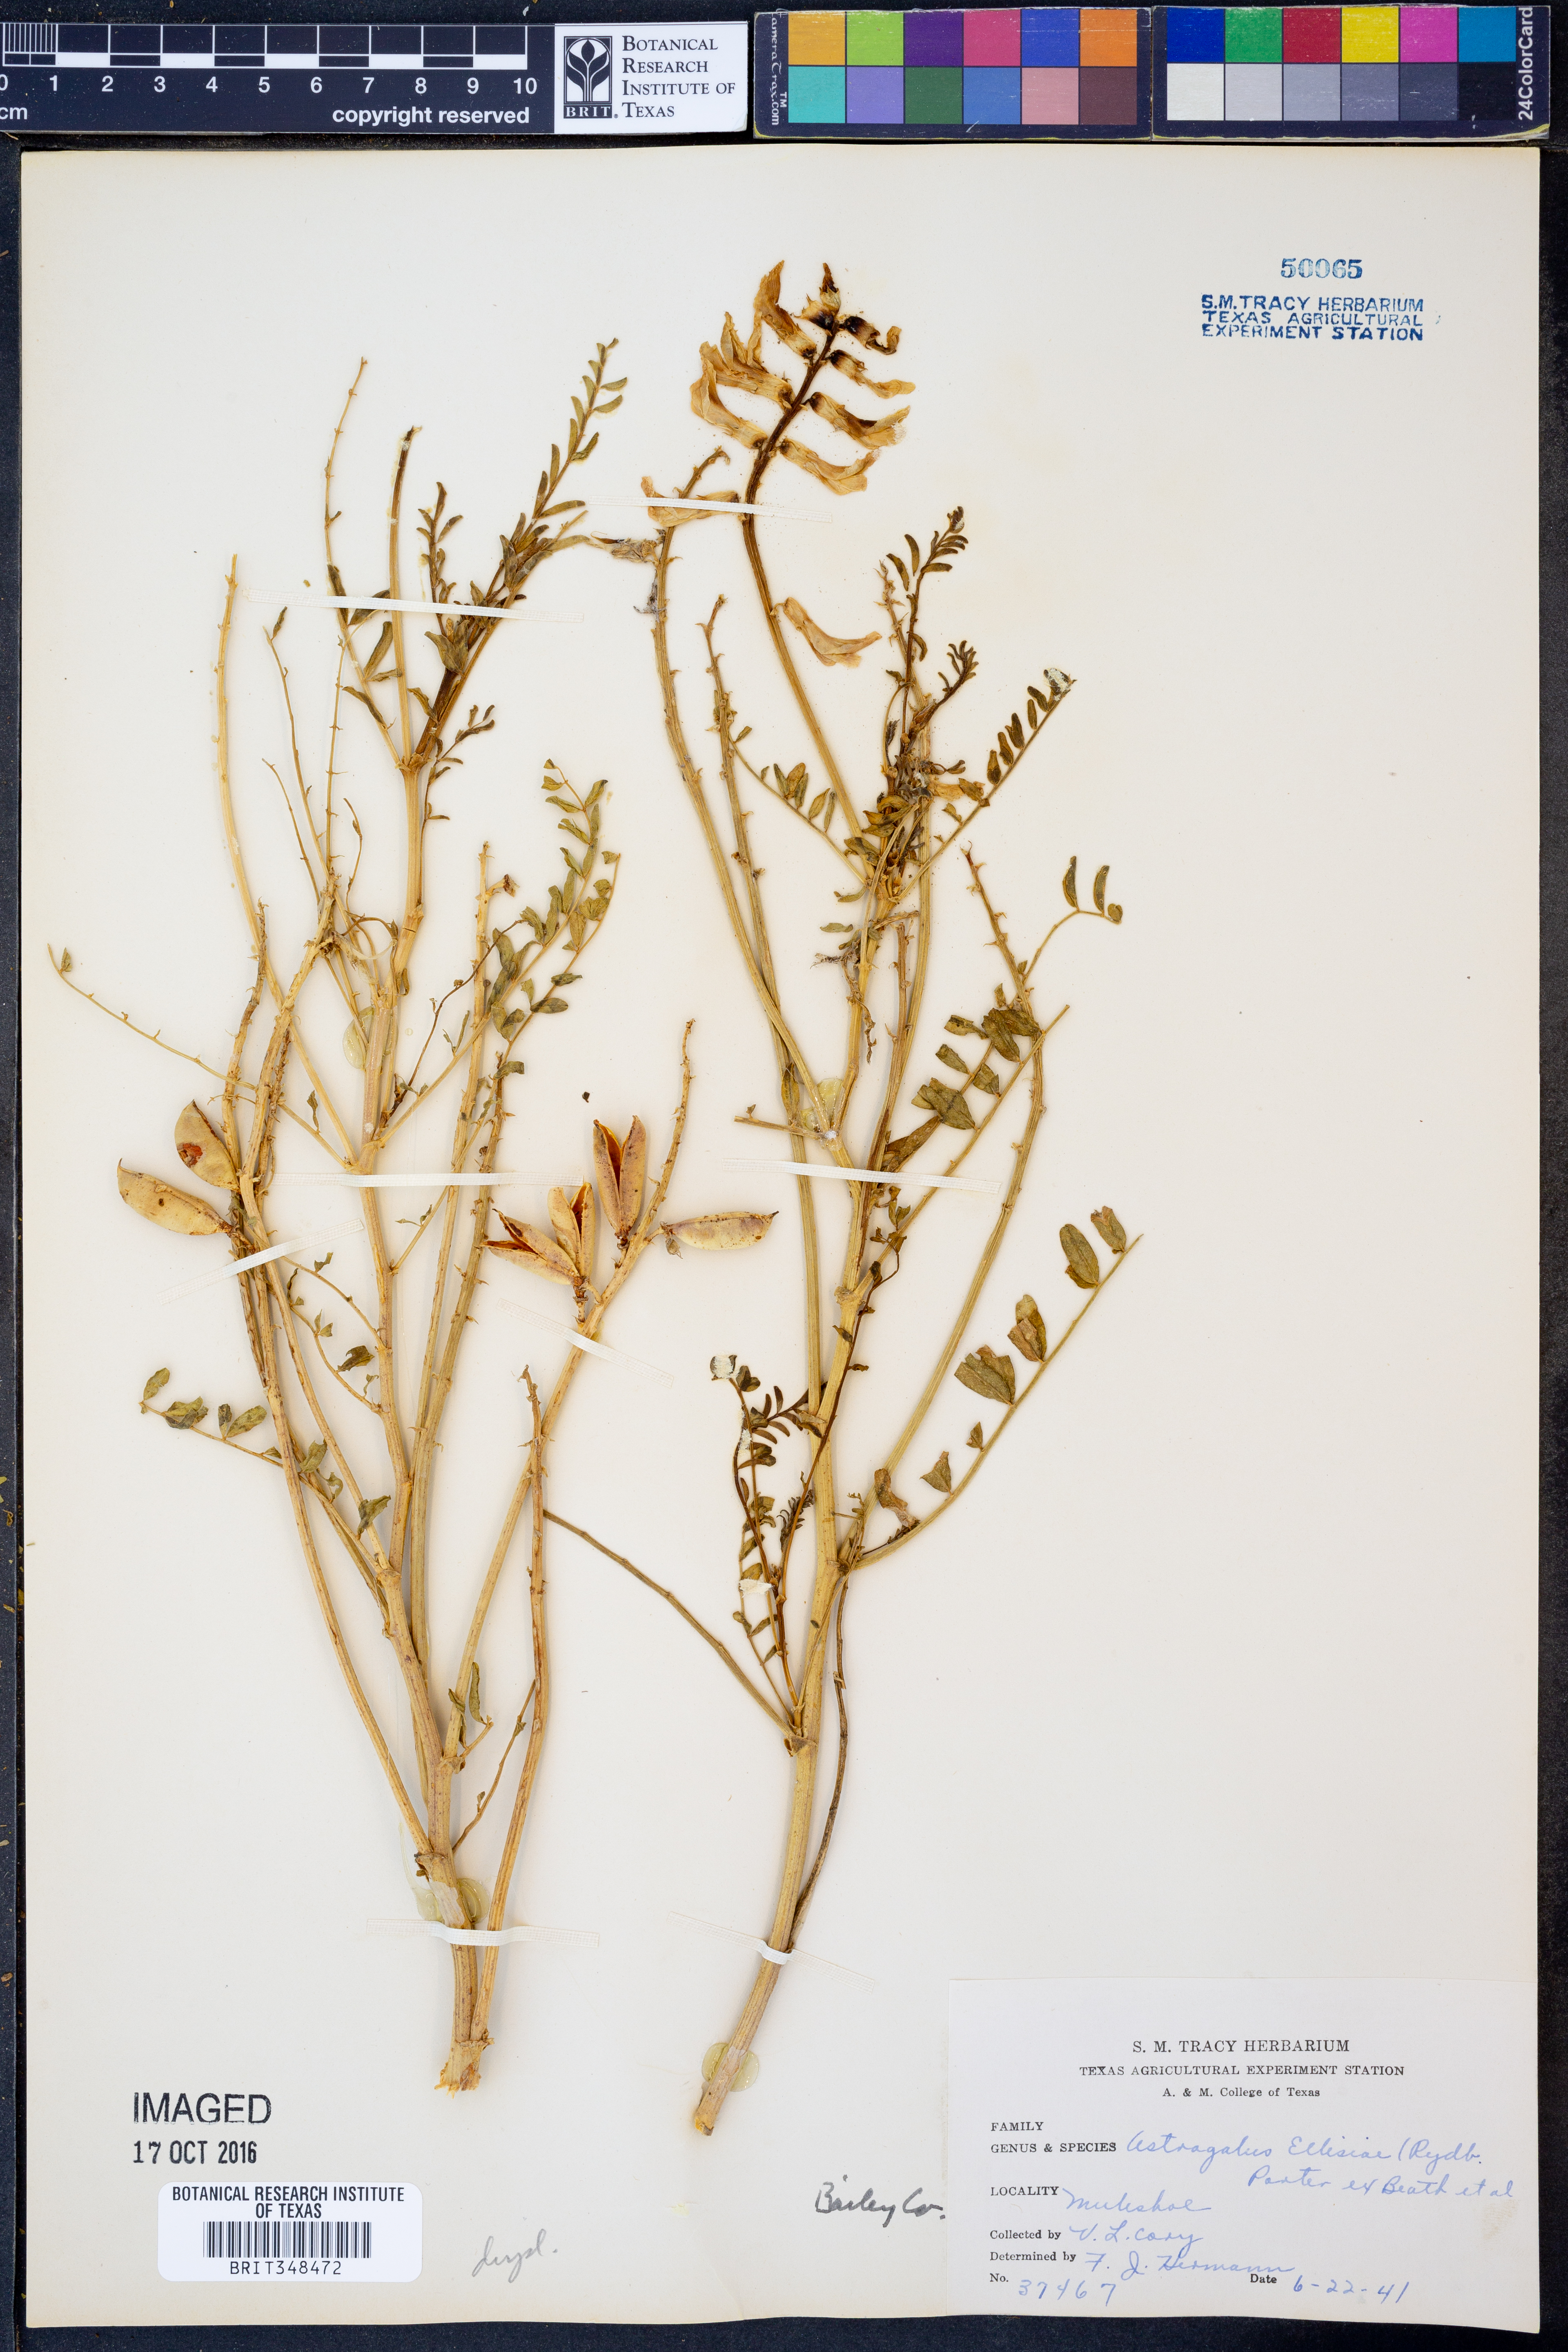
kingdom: Plantae
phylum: Tracheophyta
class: Magnoliopsida
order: Fabales
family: Fabaceae
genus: Astragalus
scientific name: Astragalus praelongus
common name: Stinking milk-vetch
